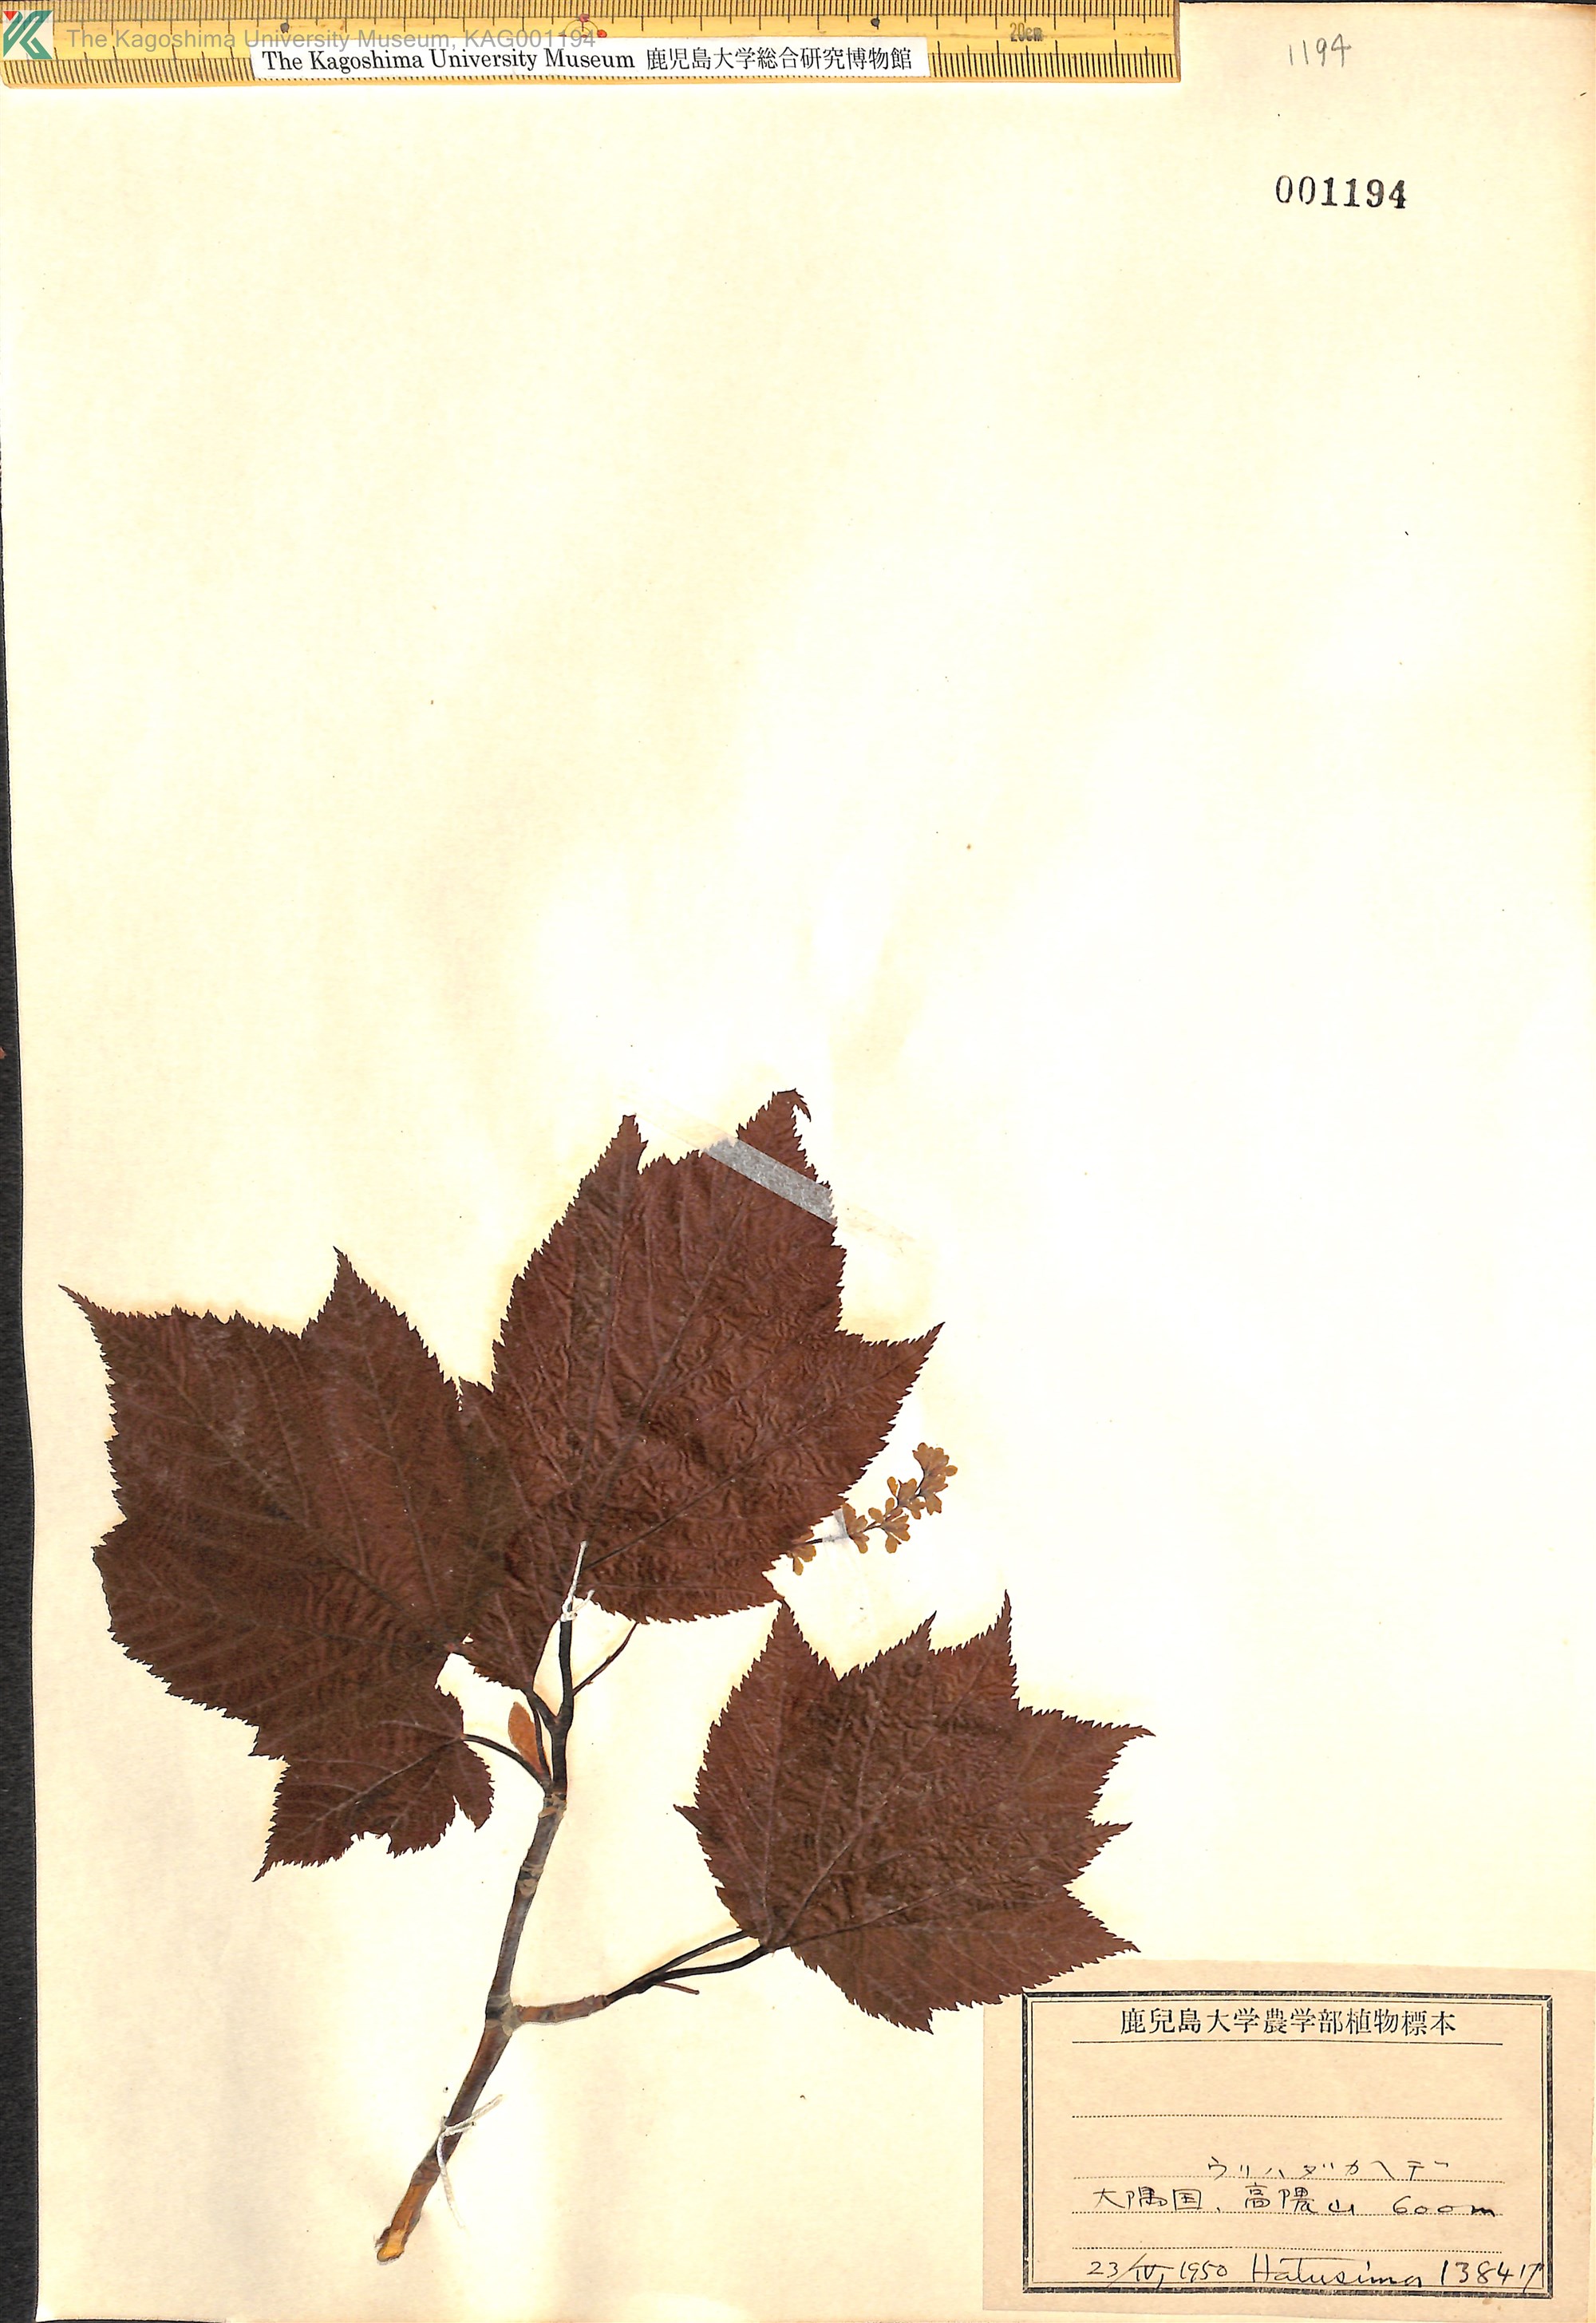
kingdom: Plantae
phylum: Tracheophyta
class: Magnoliopsida
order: Sapindales
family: Sapindaceae
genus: Acer
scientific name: Acer rufinerve
